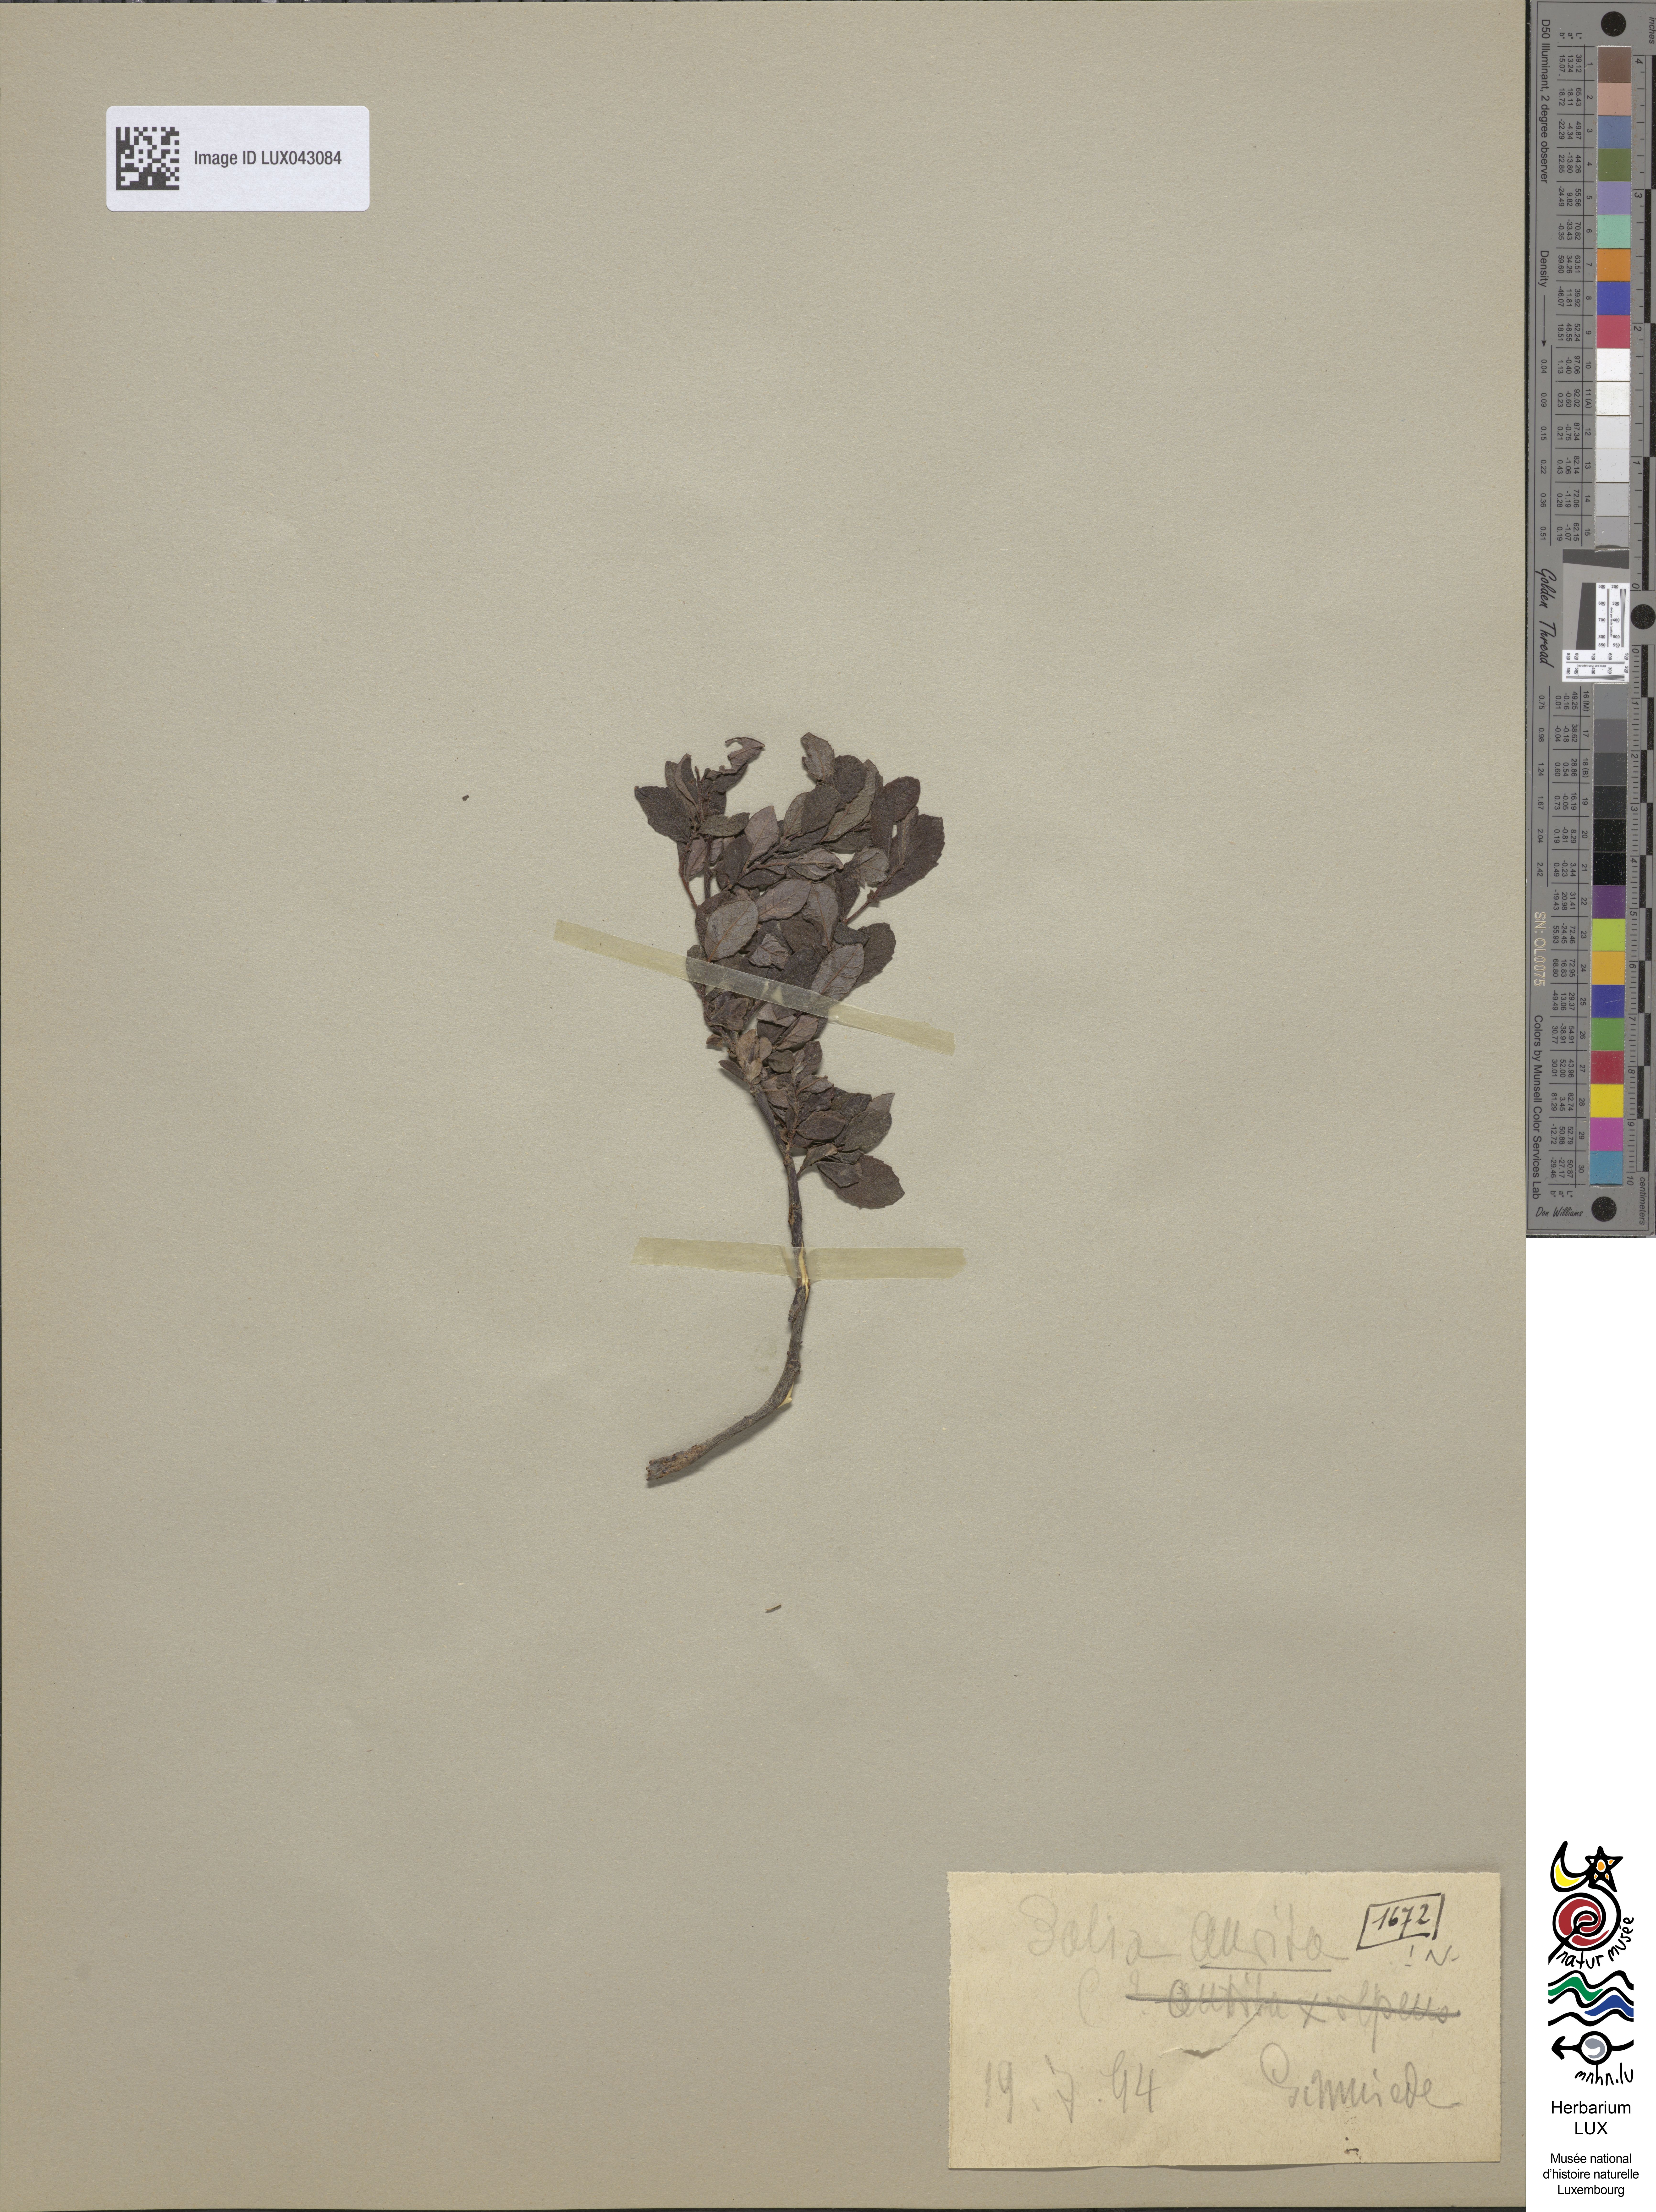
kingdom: Plantae
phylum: Tracheophyta
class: Magnoliopsida
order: Malpighiales
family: Salicaceae
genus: Salix
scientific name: Salix aurita
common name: Eared willow
